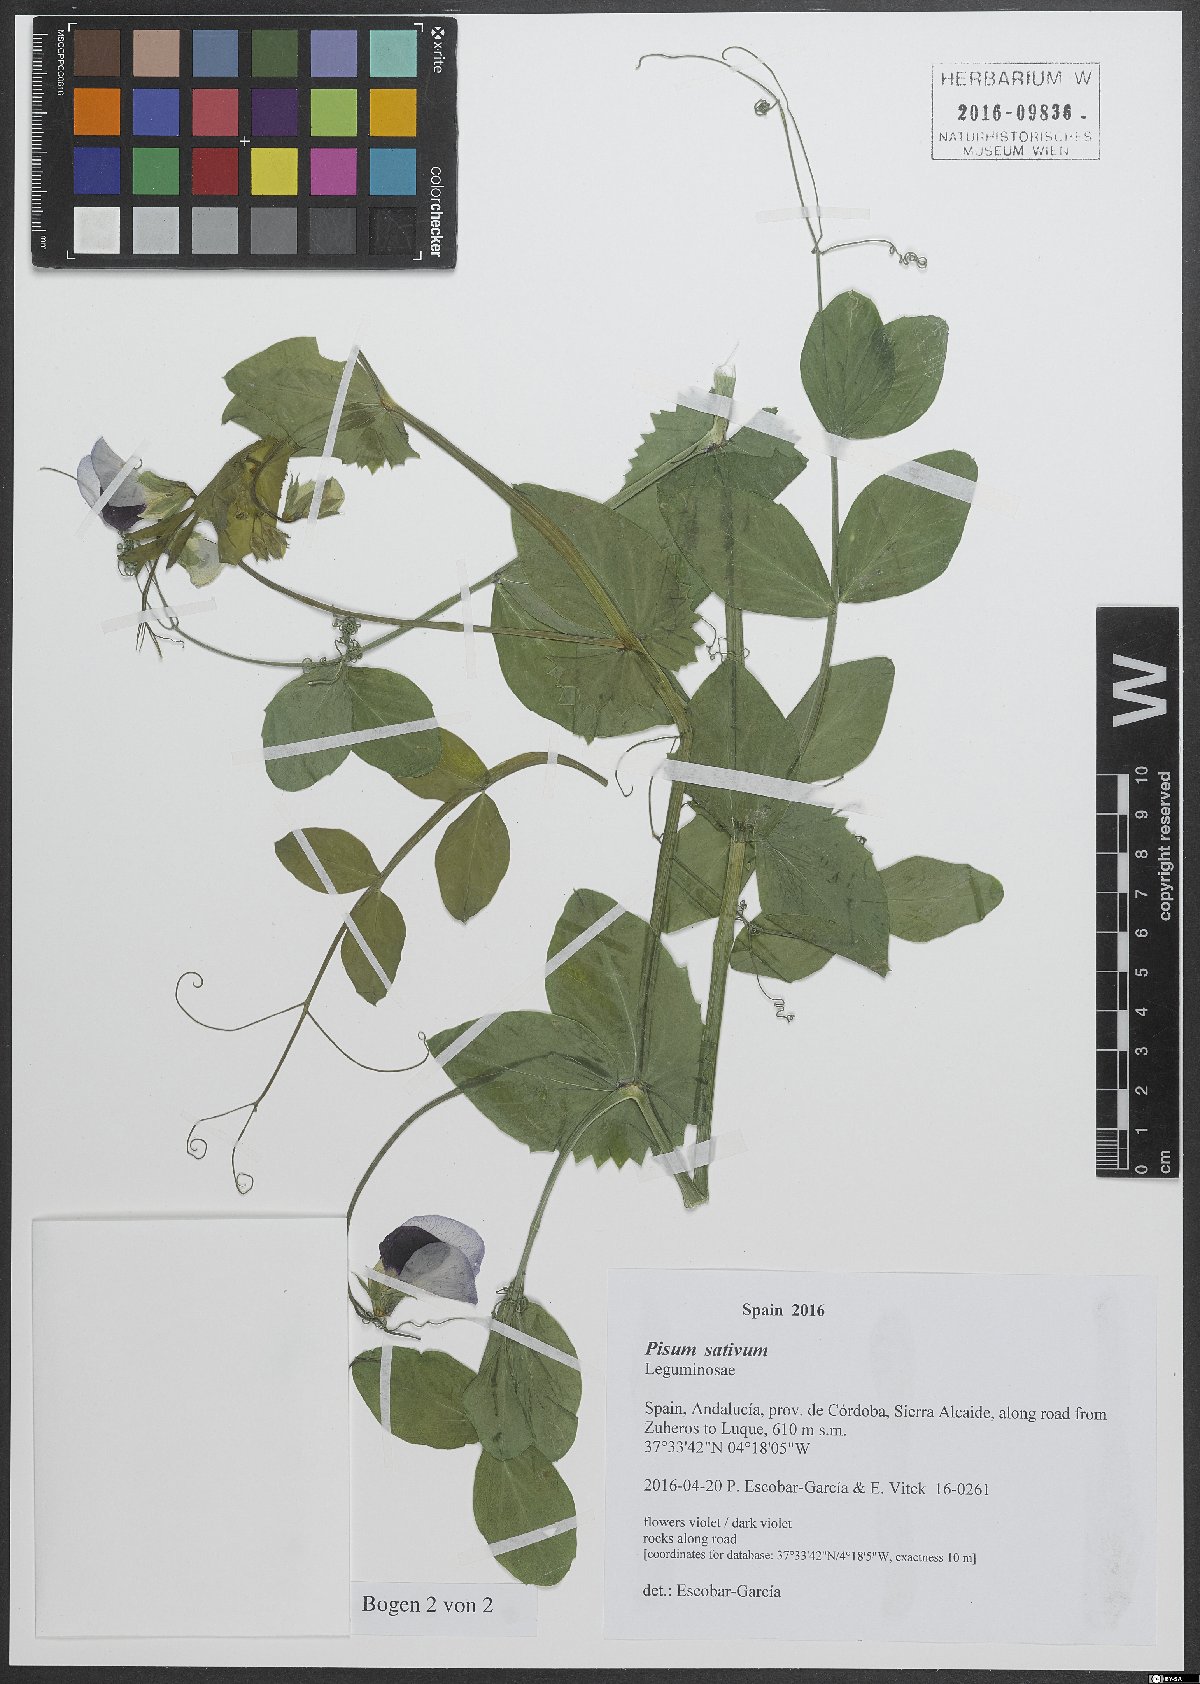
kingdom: Plantae
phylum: Tracheophyta
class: Magnoliopsida
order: Fabales
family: Fabaceae
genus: Lathyrus
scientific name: Lathyrus oleraceus
